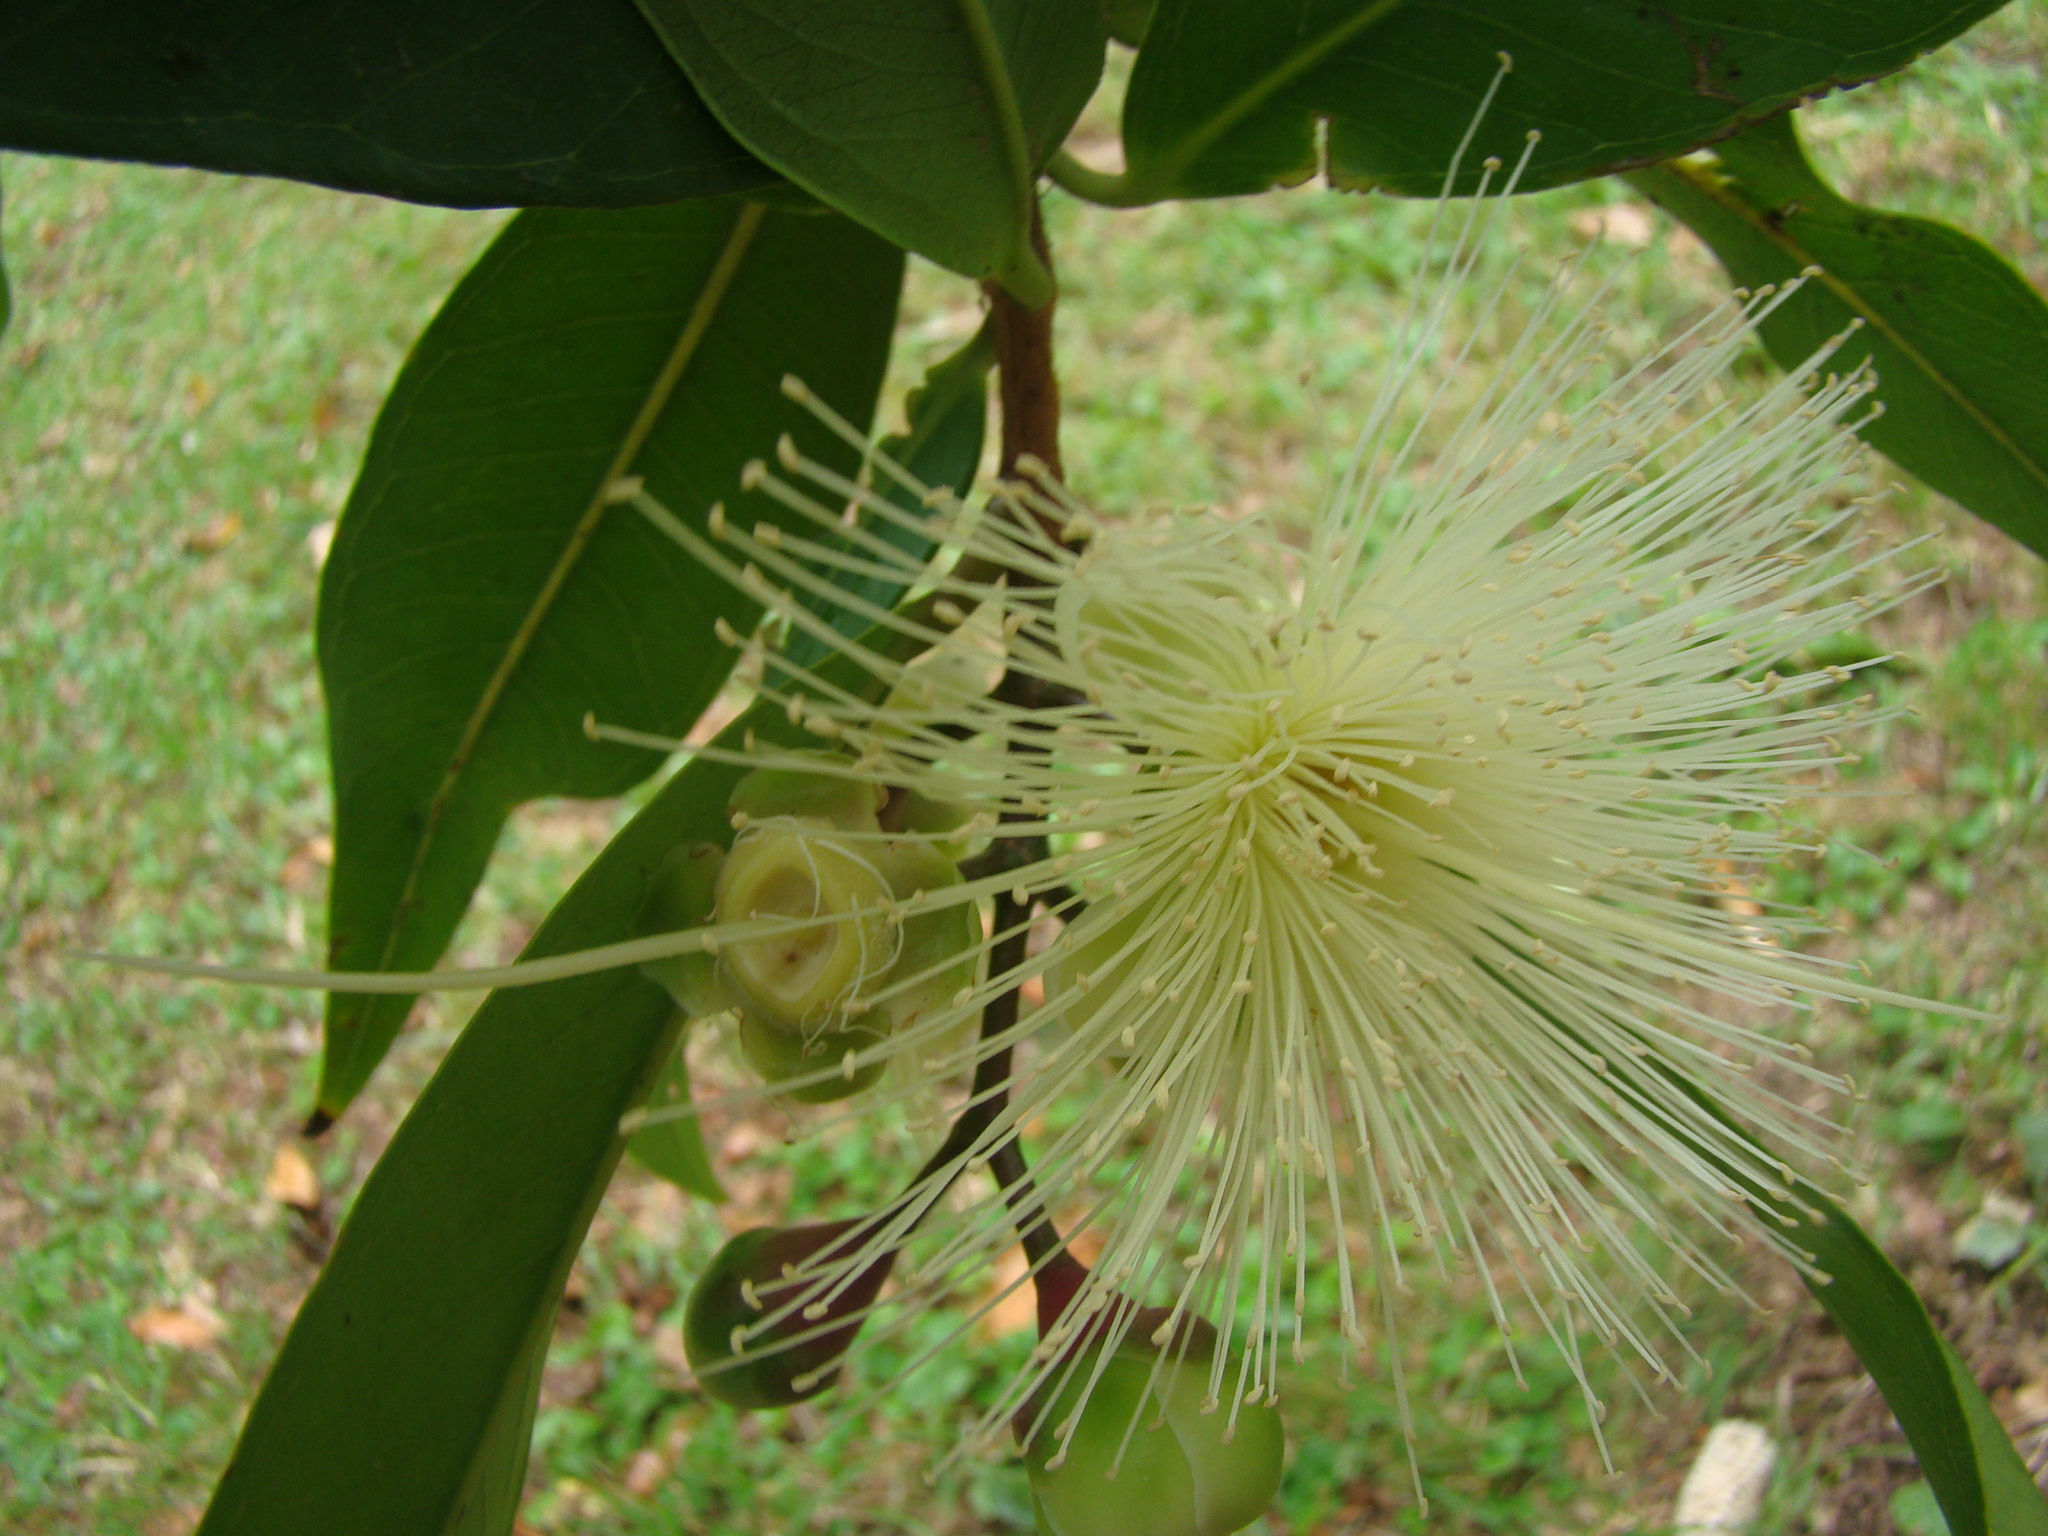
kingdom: Plantae
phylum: Tracheophyta
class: Magnoliopsida
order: Myrtales
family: Myrtaceae
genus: Syzygium
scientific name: Syzygium jambos
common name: Malabar plum
